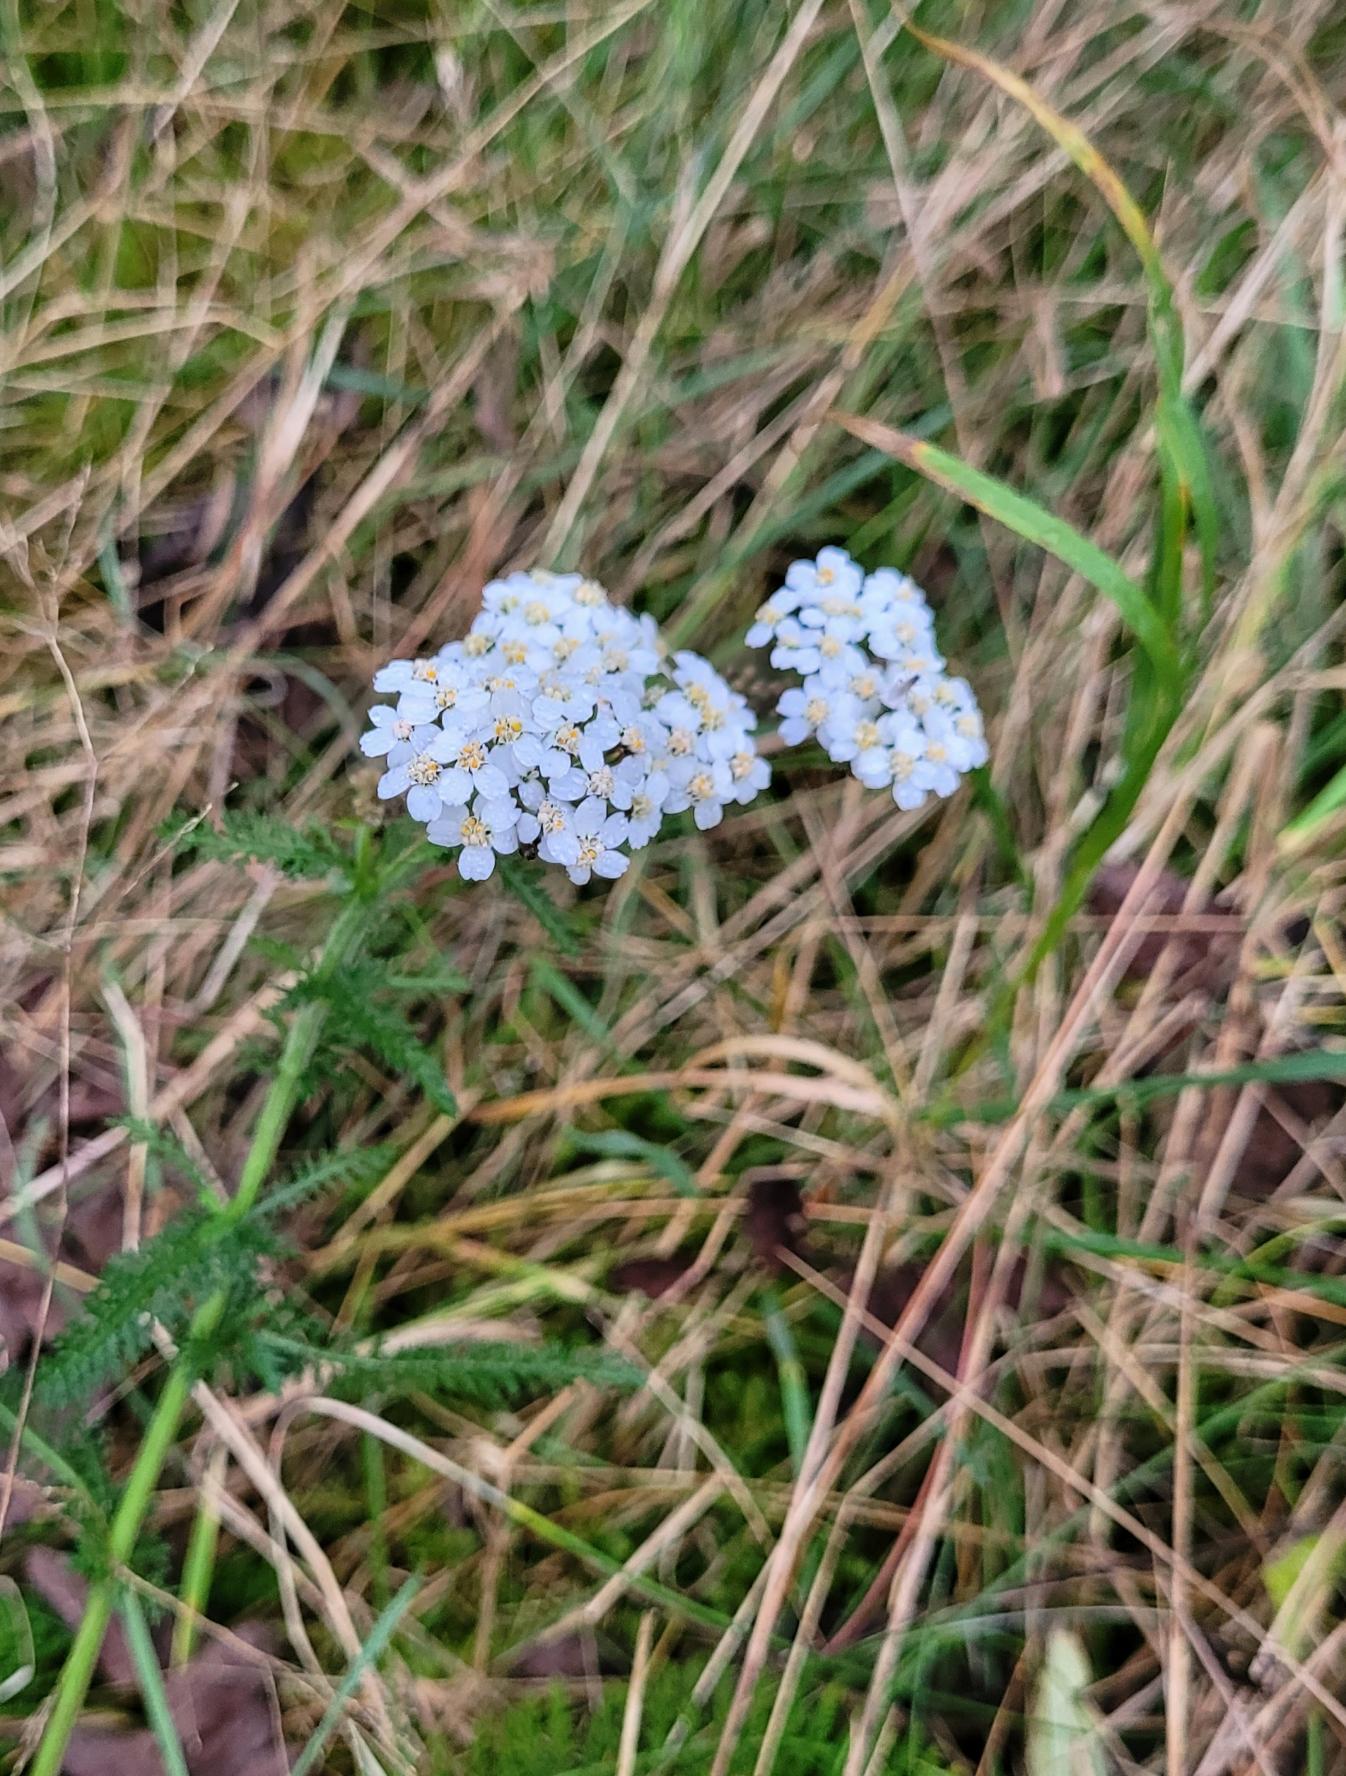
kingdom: Plantae
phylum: Tracheophyta
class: Magnoliopsida
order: Asterales
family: Asteraceae
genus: Achillea
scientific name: Achillea millefolium
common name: Almindelig røllike
